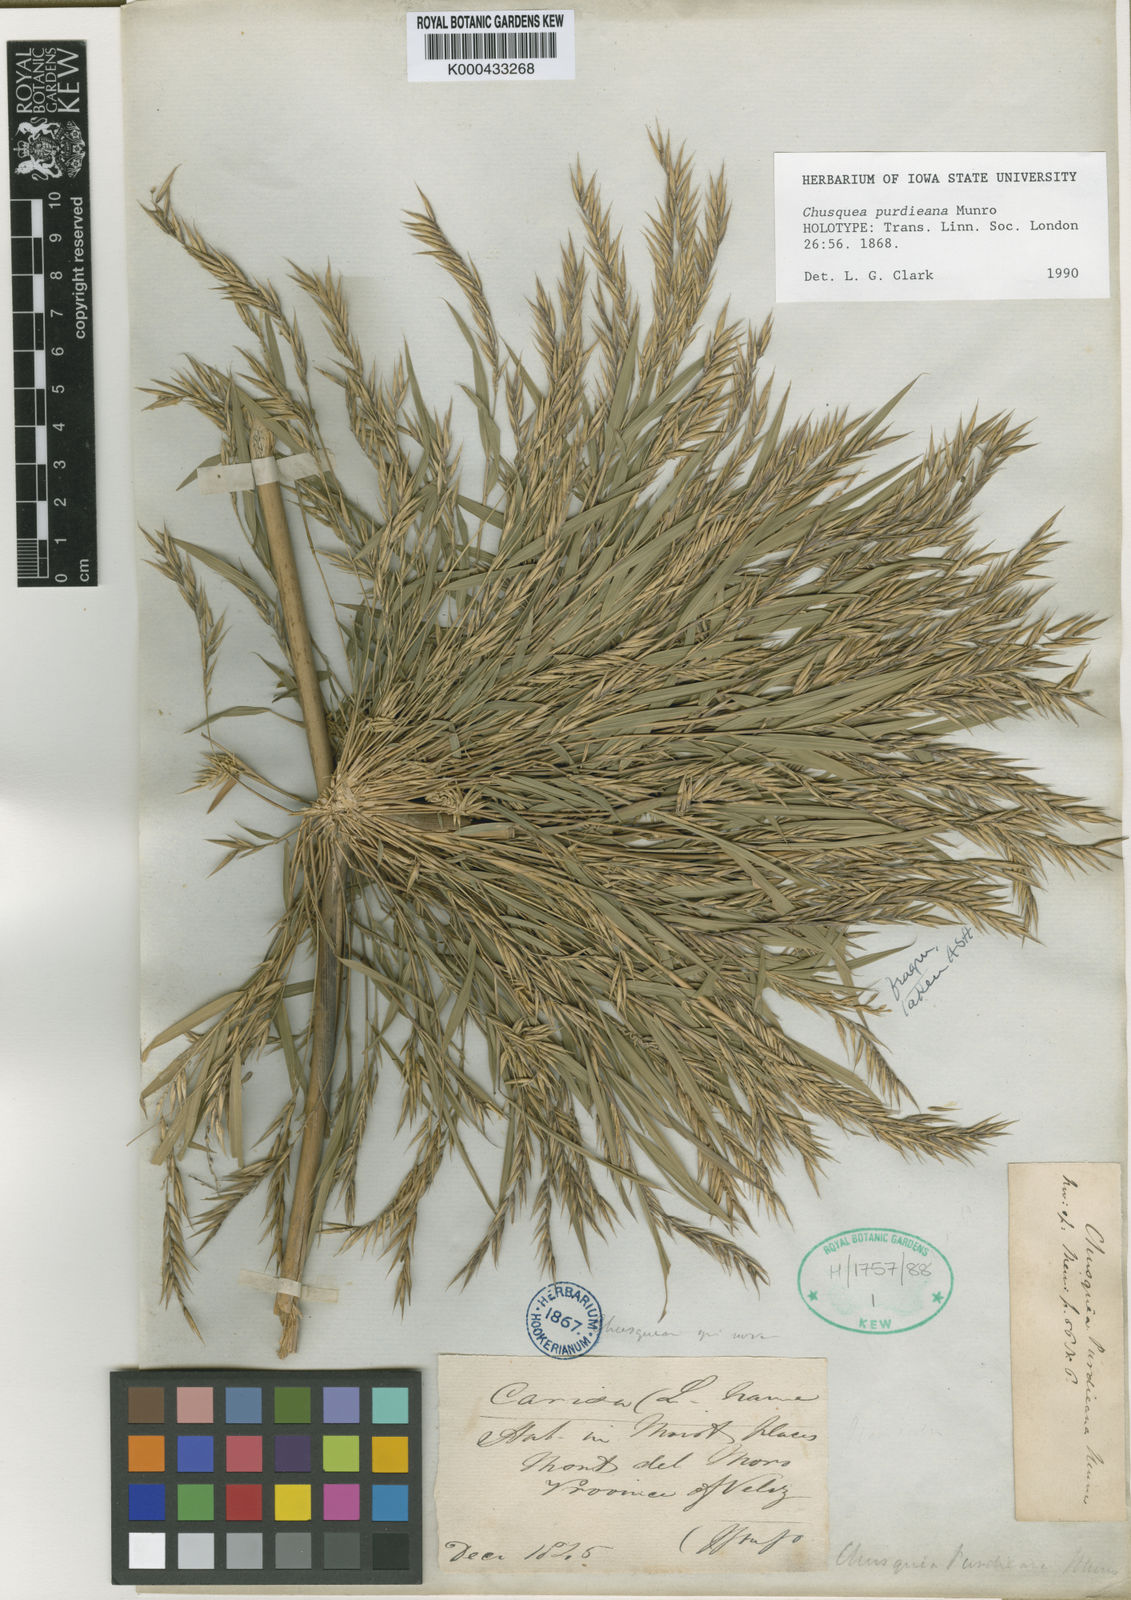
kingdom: Plantae
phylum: Tracheophyta
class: Liliopsida
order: Poales
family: Poaceae
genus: Chusquea
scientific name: Chusquea purdieana
